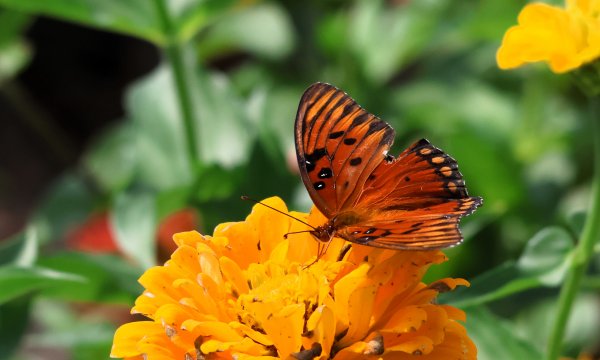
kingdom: Animalia
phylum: Arthropoda
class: Insecta
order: Lepidoptera
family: Nymphalidae
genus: Dione
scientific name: Dione vanillae
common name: Gulf Fritillary
